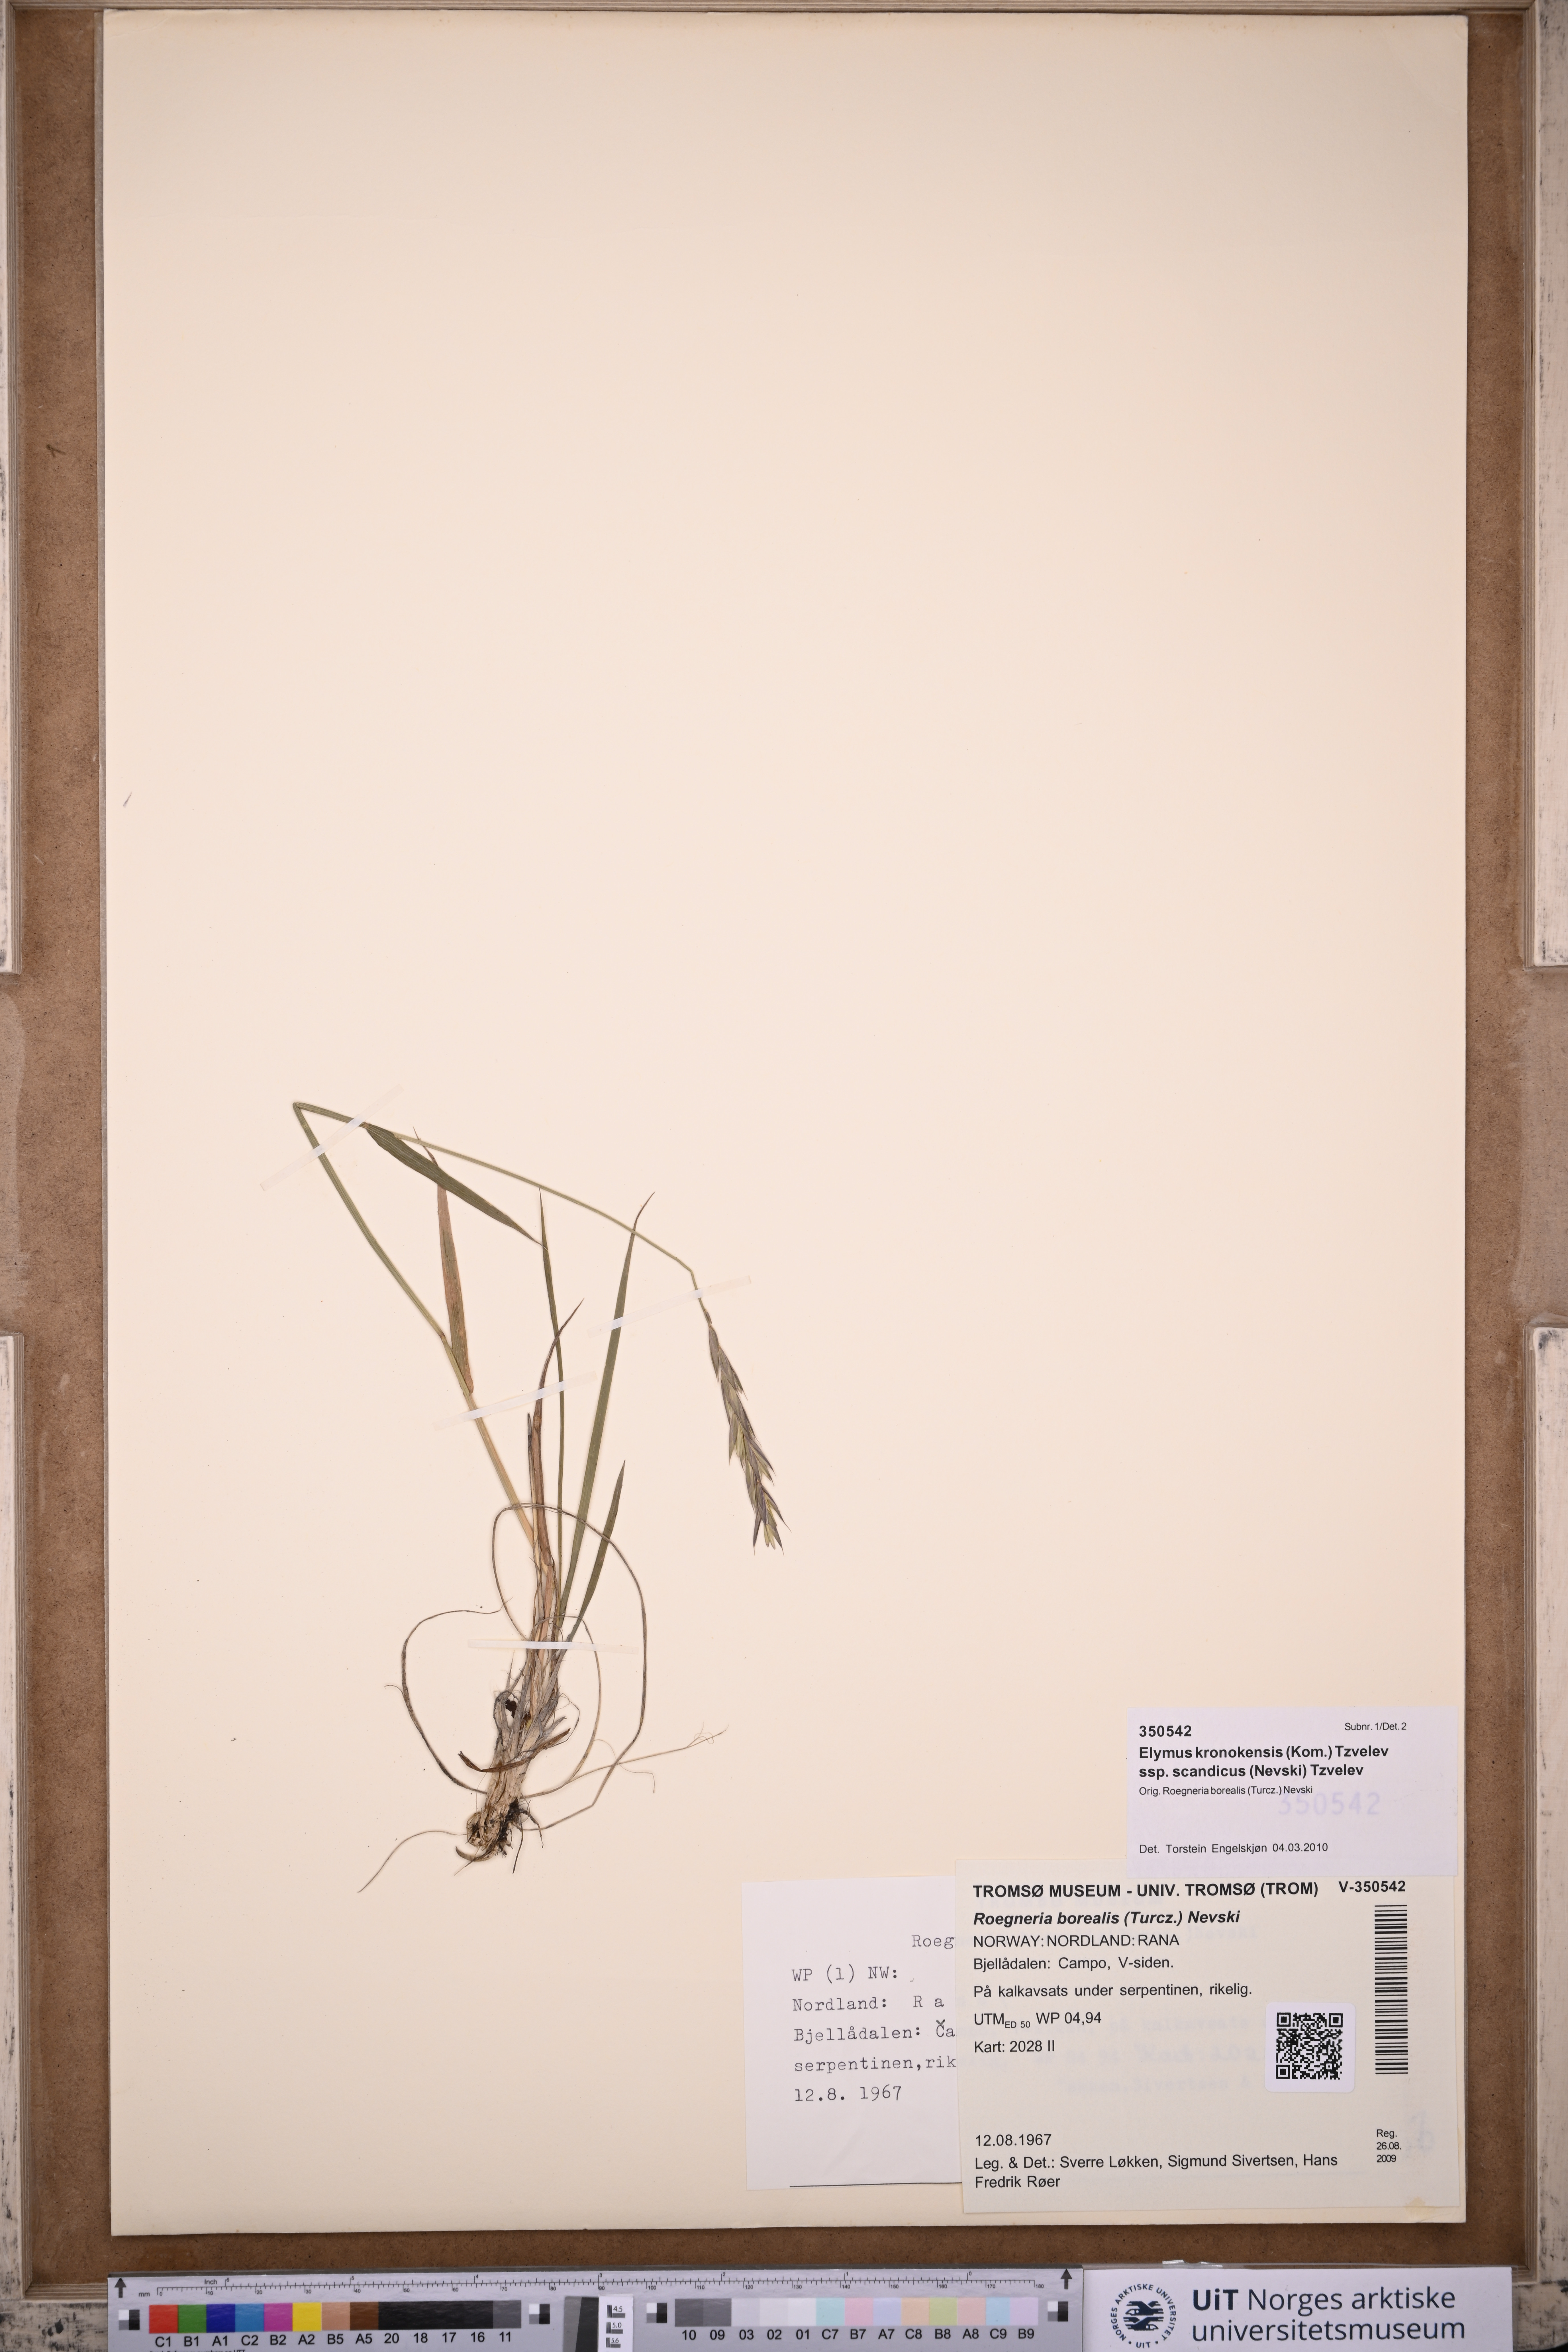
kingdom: Plantae
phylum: Tracheophyta
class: Liliopsida
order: Poales
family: Poaceae
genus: Elymus
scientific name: Elymus macrourus
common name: Northern wheatgrass
